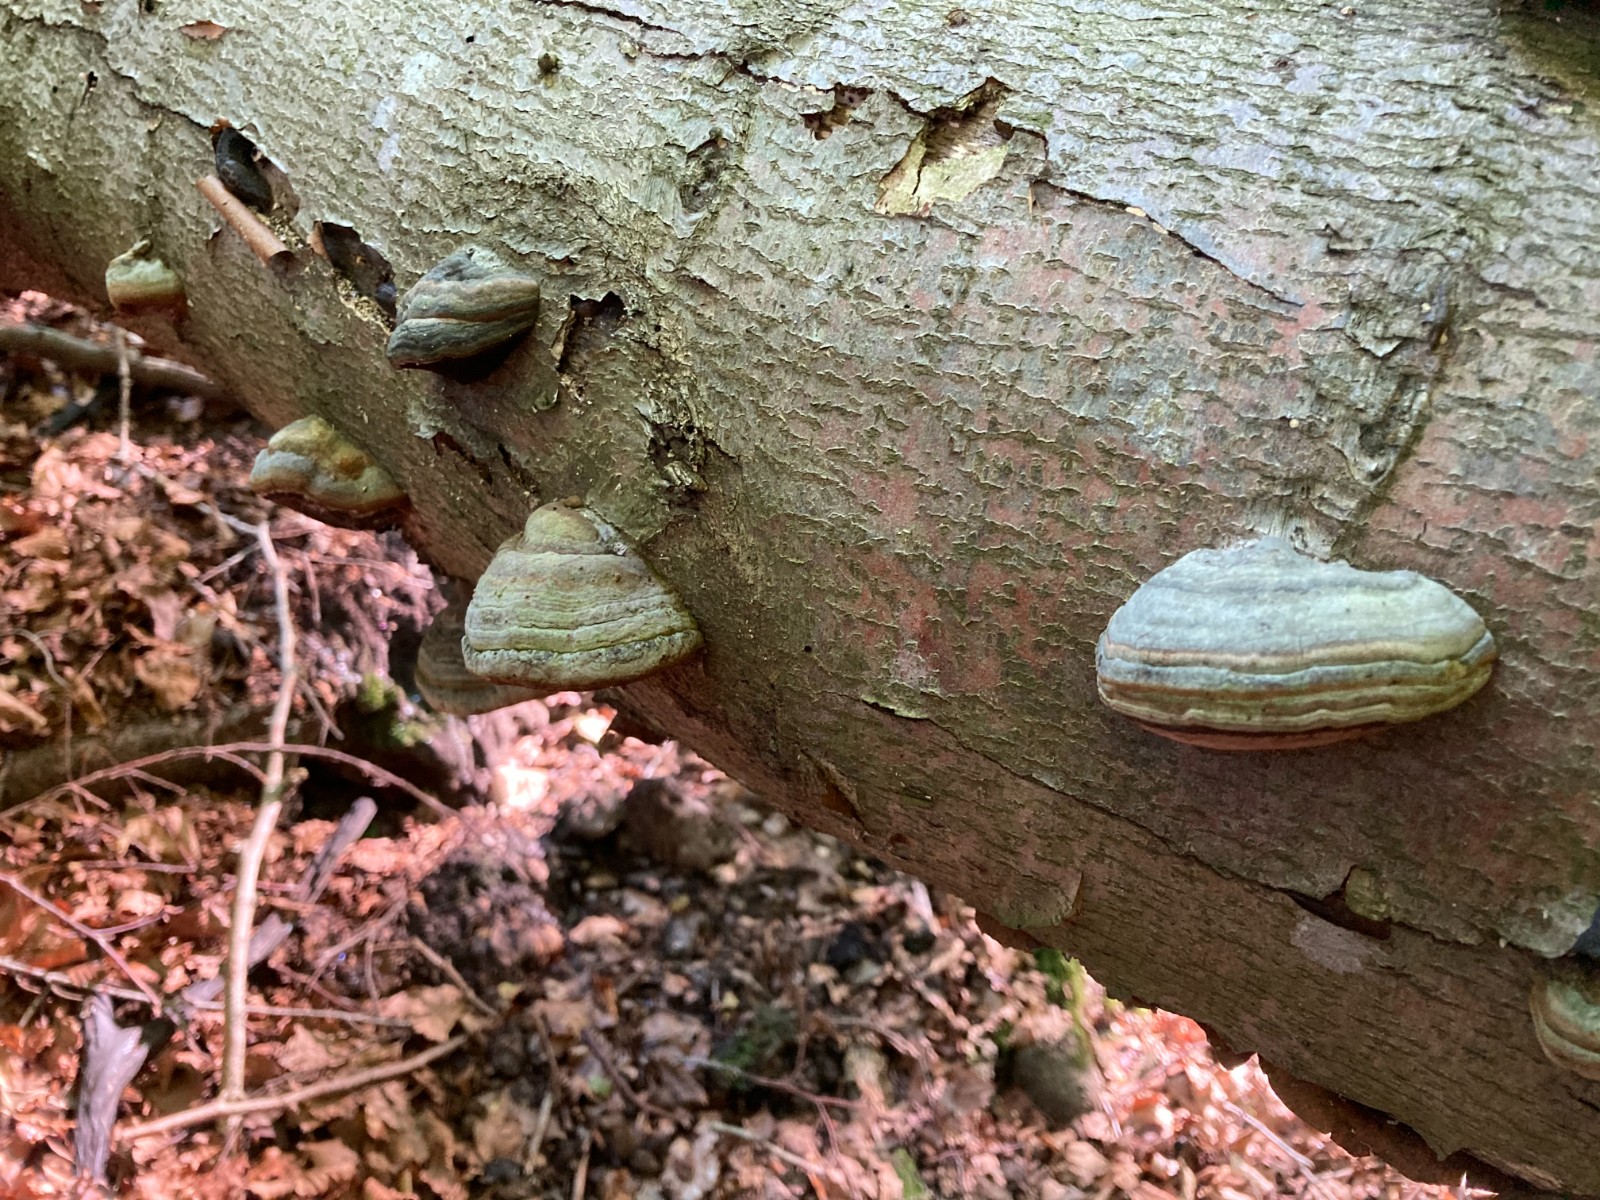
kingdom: Fungi
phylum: Basidiomycota
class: Agaricomycetes
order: Polyporales
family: Polyporaceae
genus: Fomes
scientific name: Fomes fomentarius
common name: tøndersvamp
